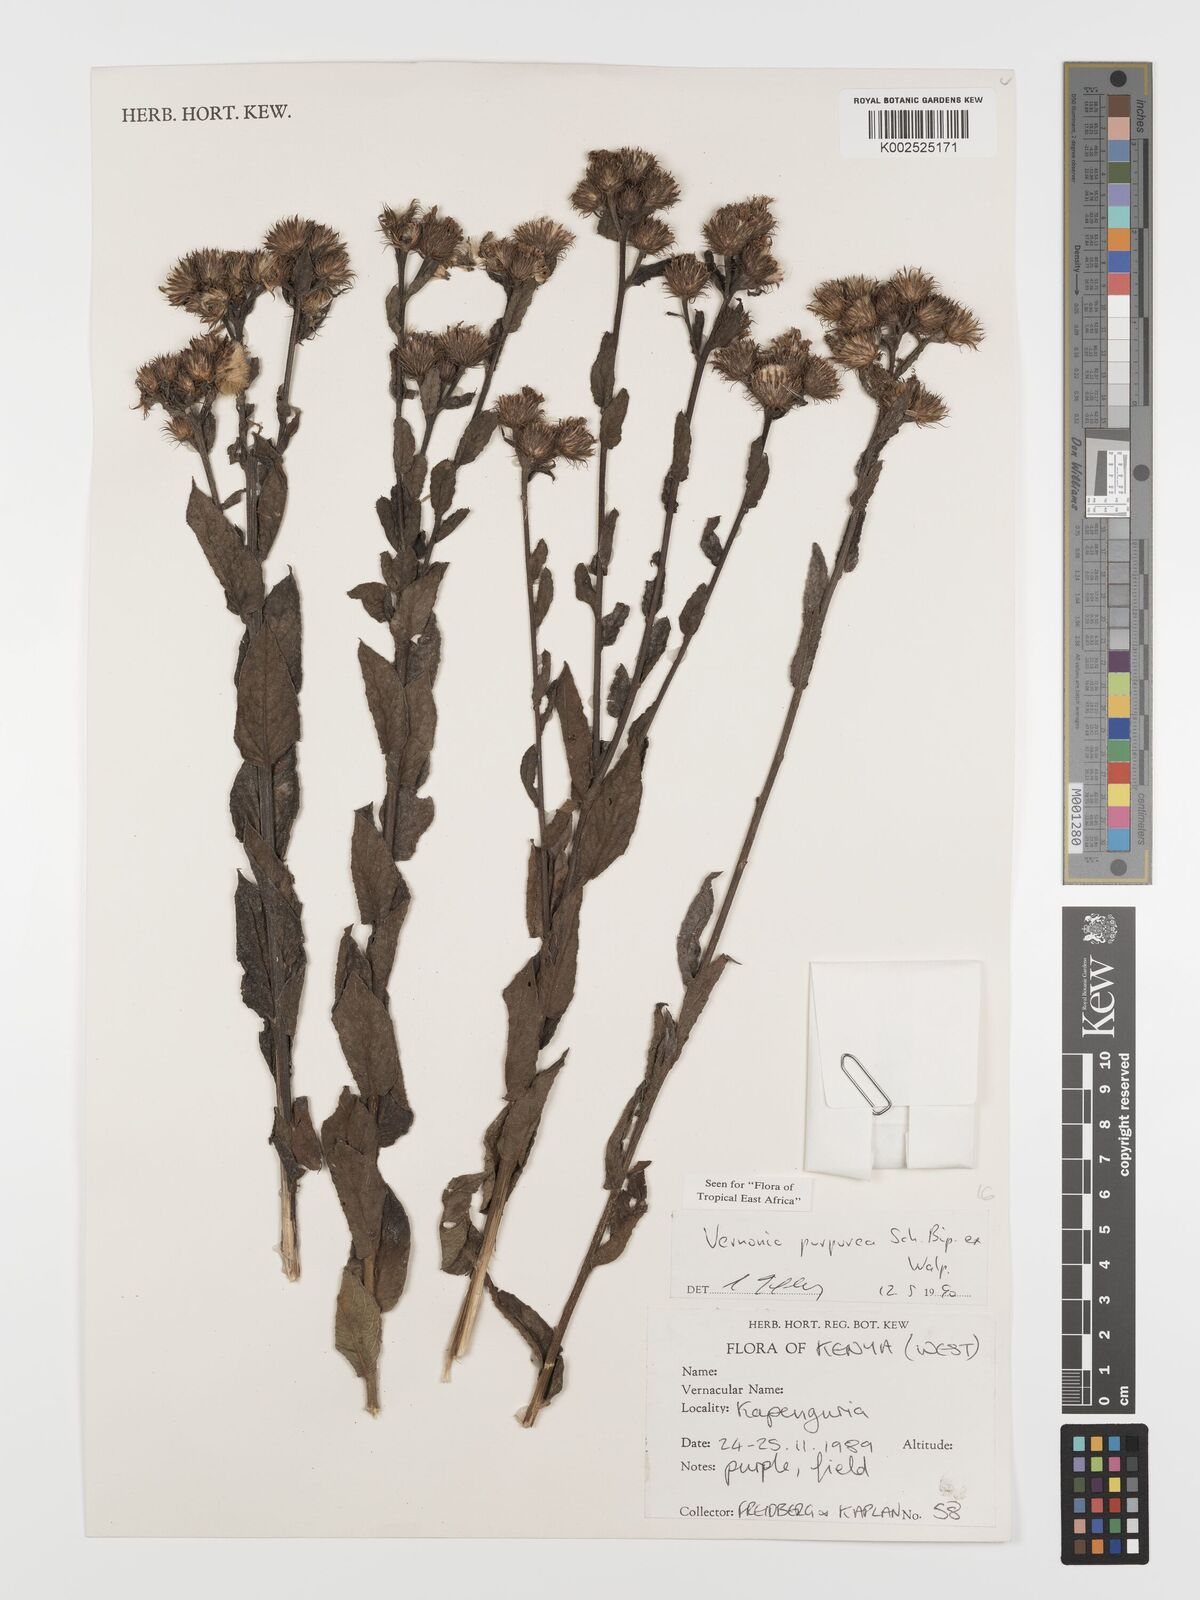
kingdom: Plantae
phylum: Tracheophyta
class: Magnoliopsida
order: Asterales
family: Asteraceae
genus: Nothovernonia
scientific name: Nothovernonia purpurea
